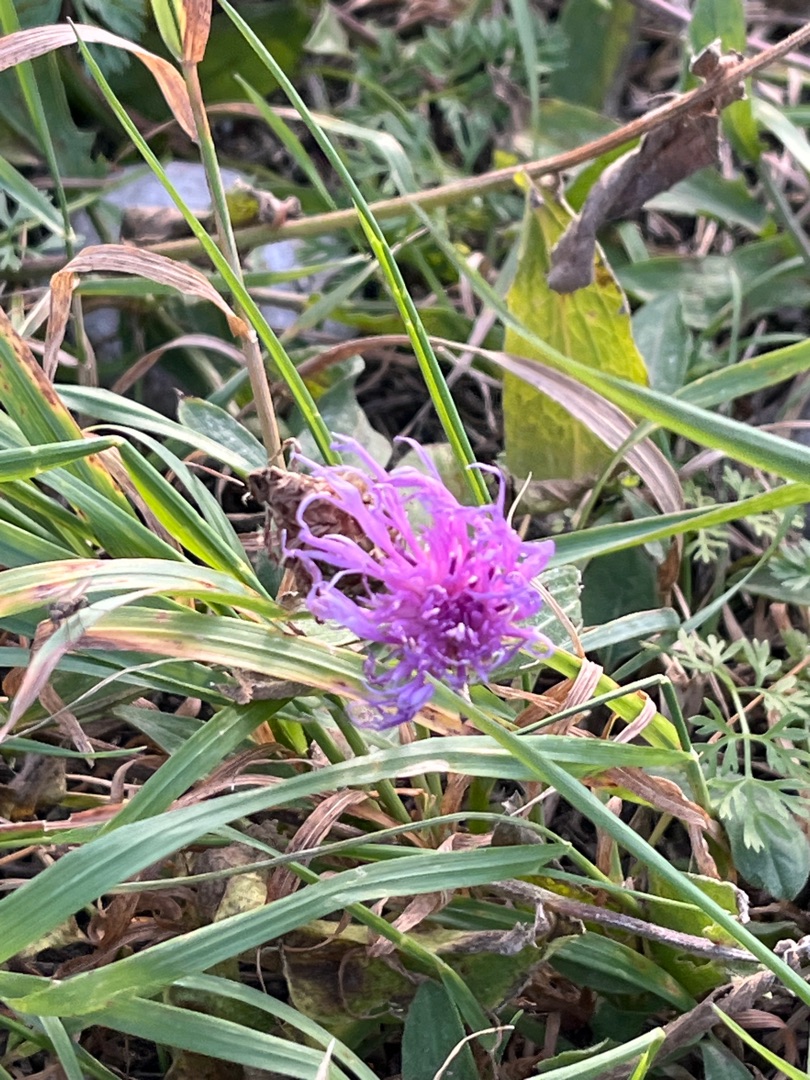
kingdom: Plantae
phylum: Tracheophyta
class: Magnoliopsida
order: Asterales
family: Asteraceae
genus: Centaurea
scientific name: Centaurea jacea
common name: Almindelig knopurt
